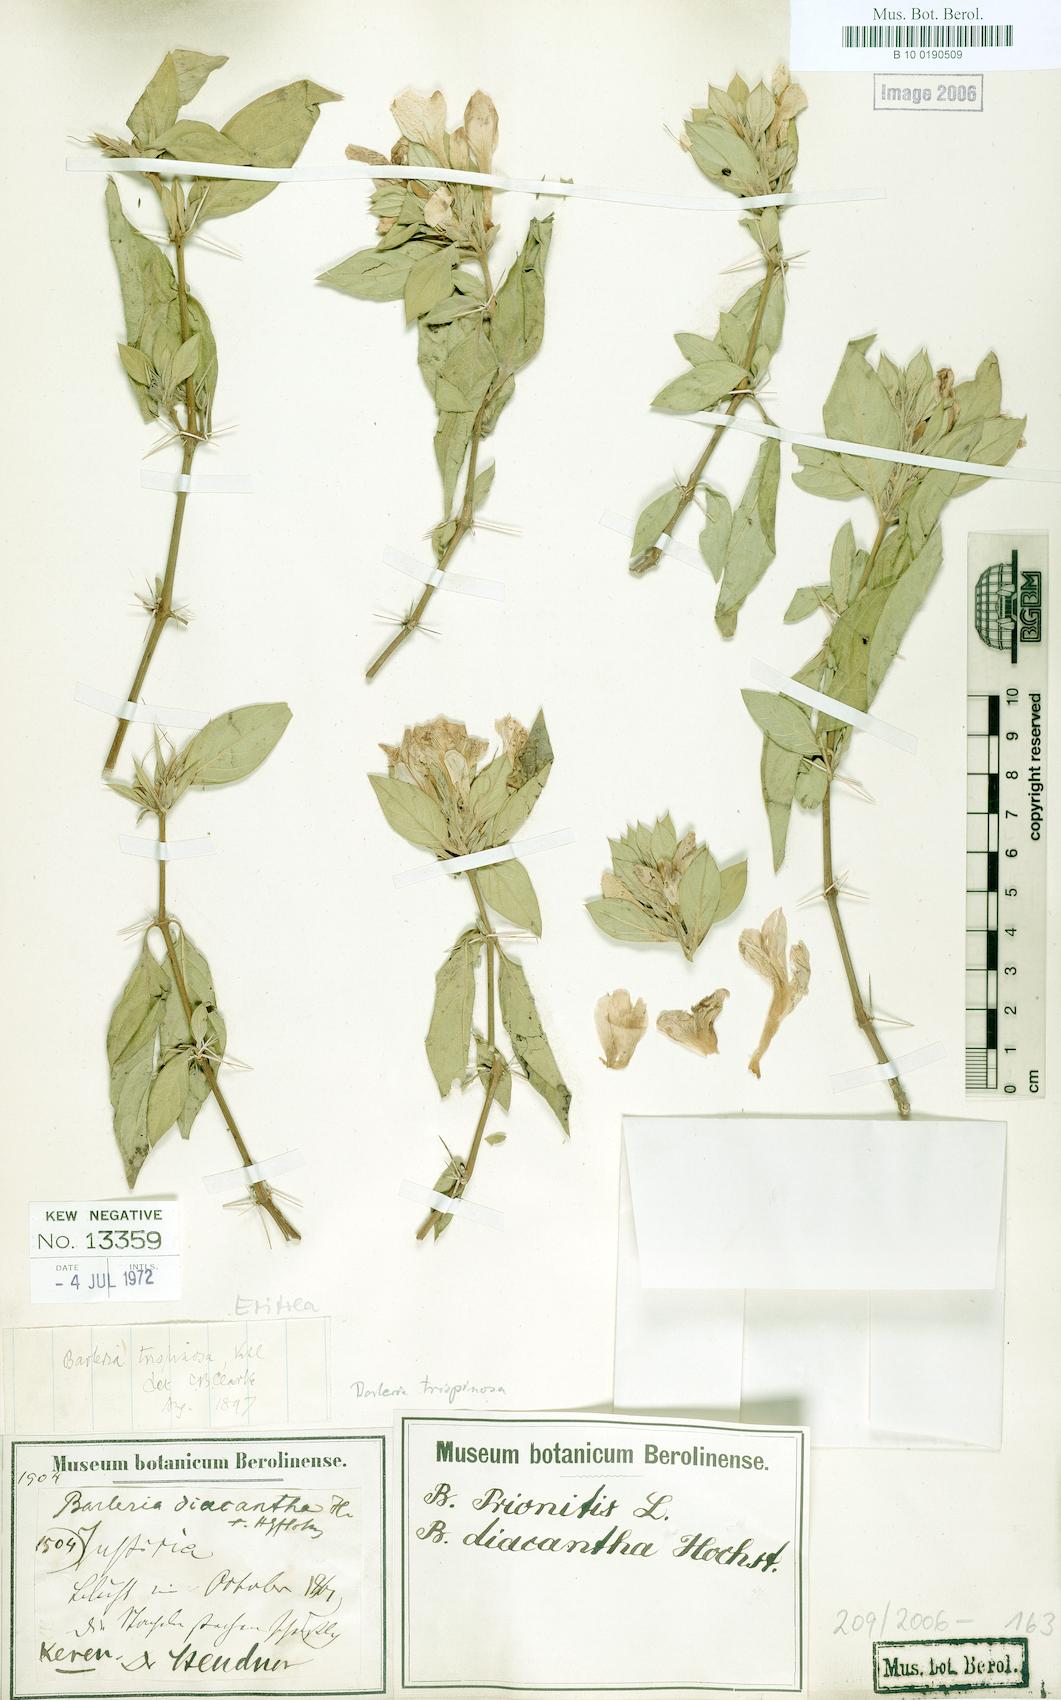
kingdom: Plantae
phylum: Tracheophyta
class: Magnoliopsida
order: Lamiales
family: Acanthaceae
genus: Barleria
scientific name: Barleria trispinosa
